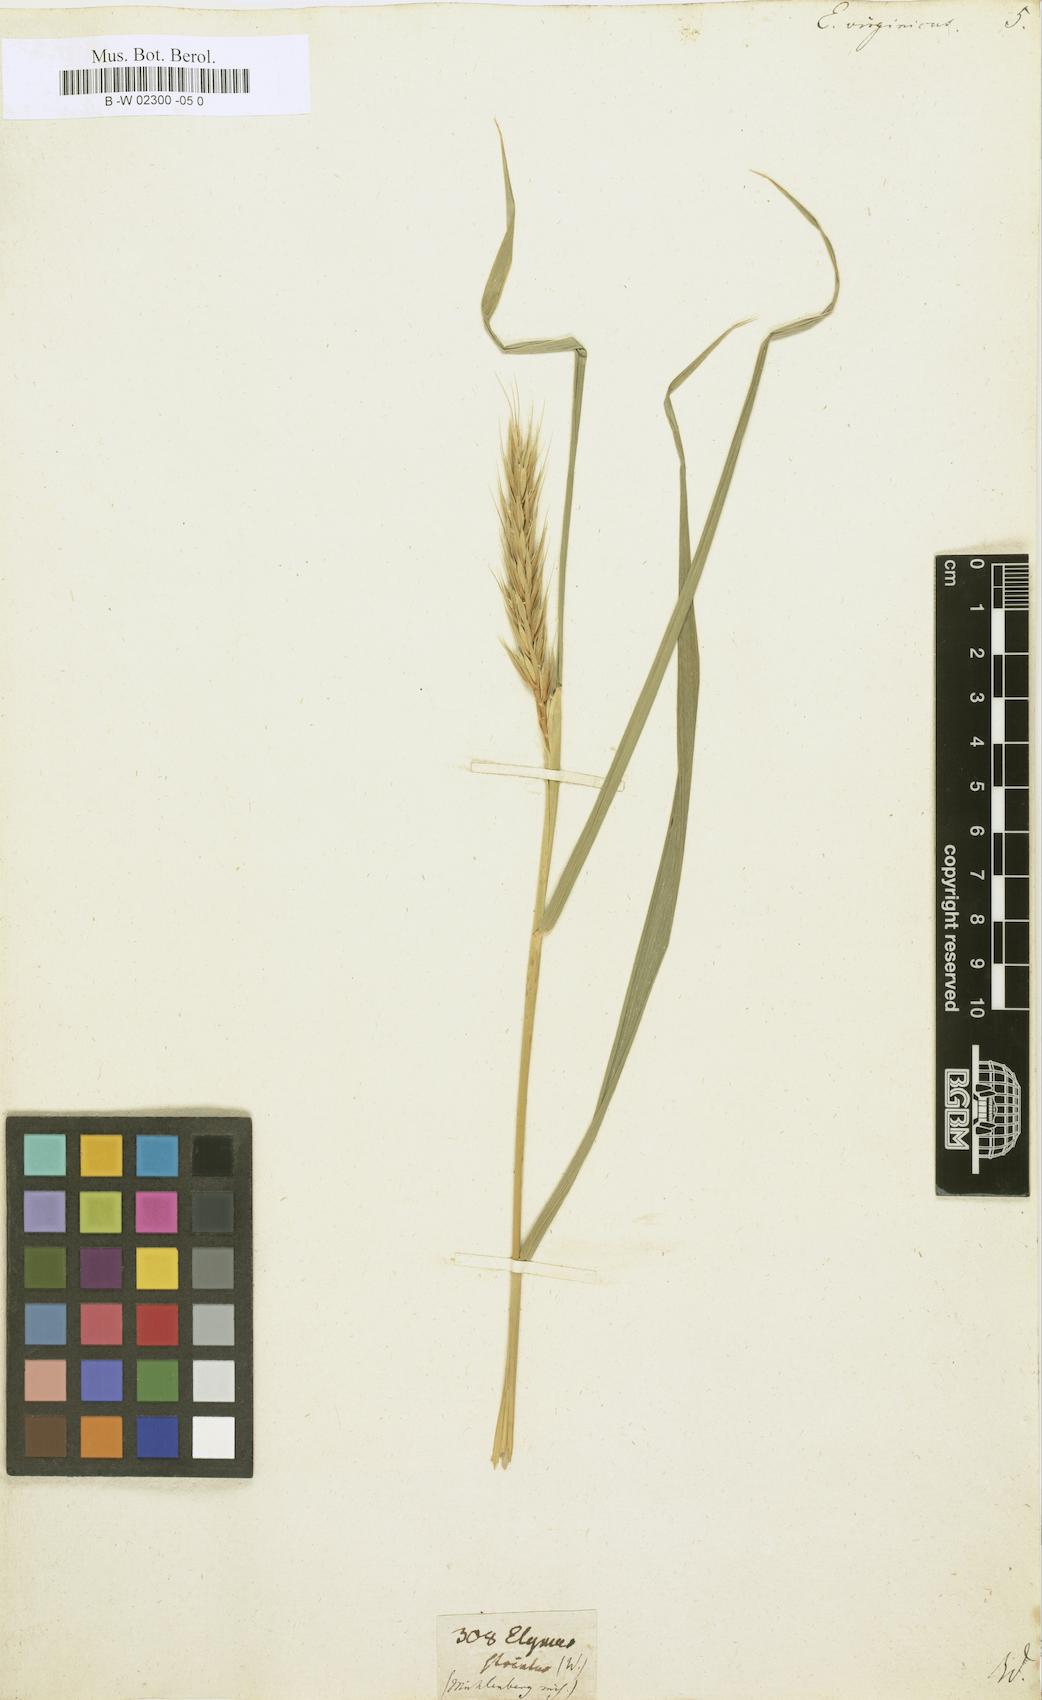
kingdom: Plantae
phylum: Tracheophyta
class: Liliopsida
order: Poales
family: Poaceae
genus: Elymus
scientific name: Elymus virginicus
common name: Common eastern wildrye
